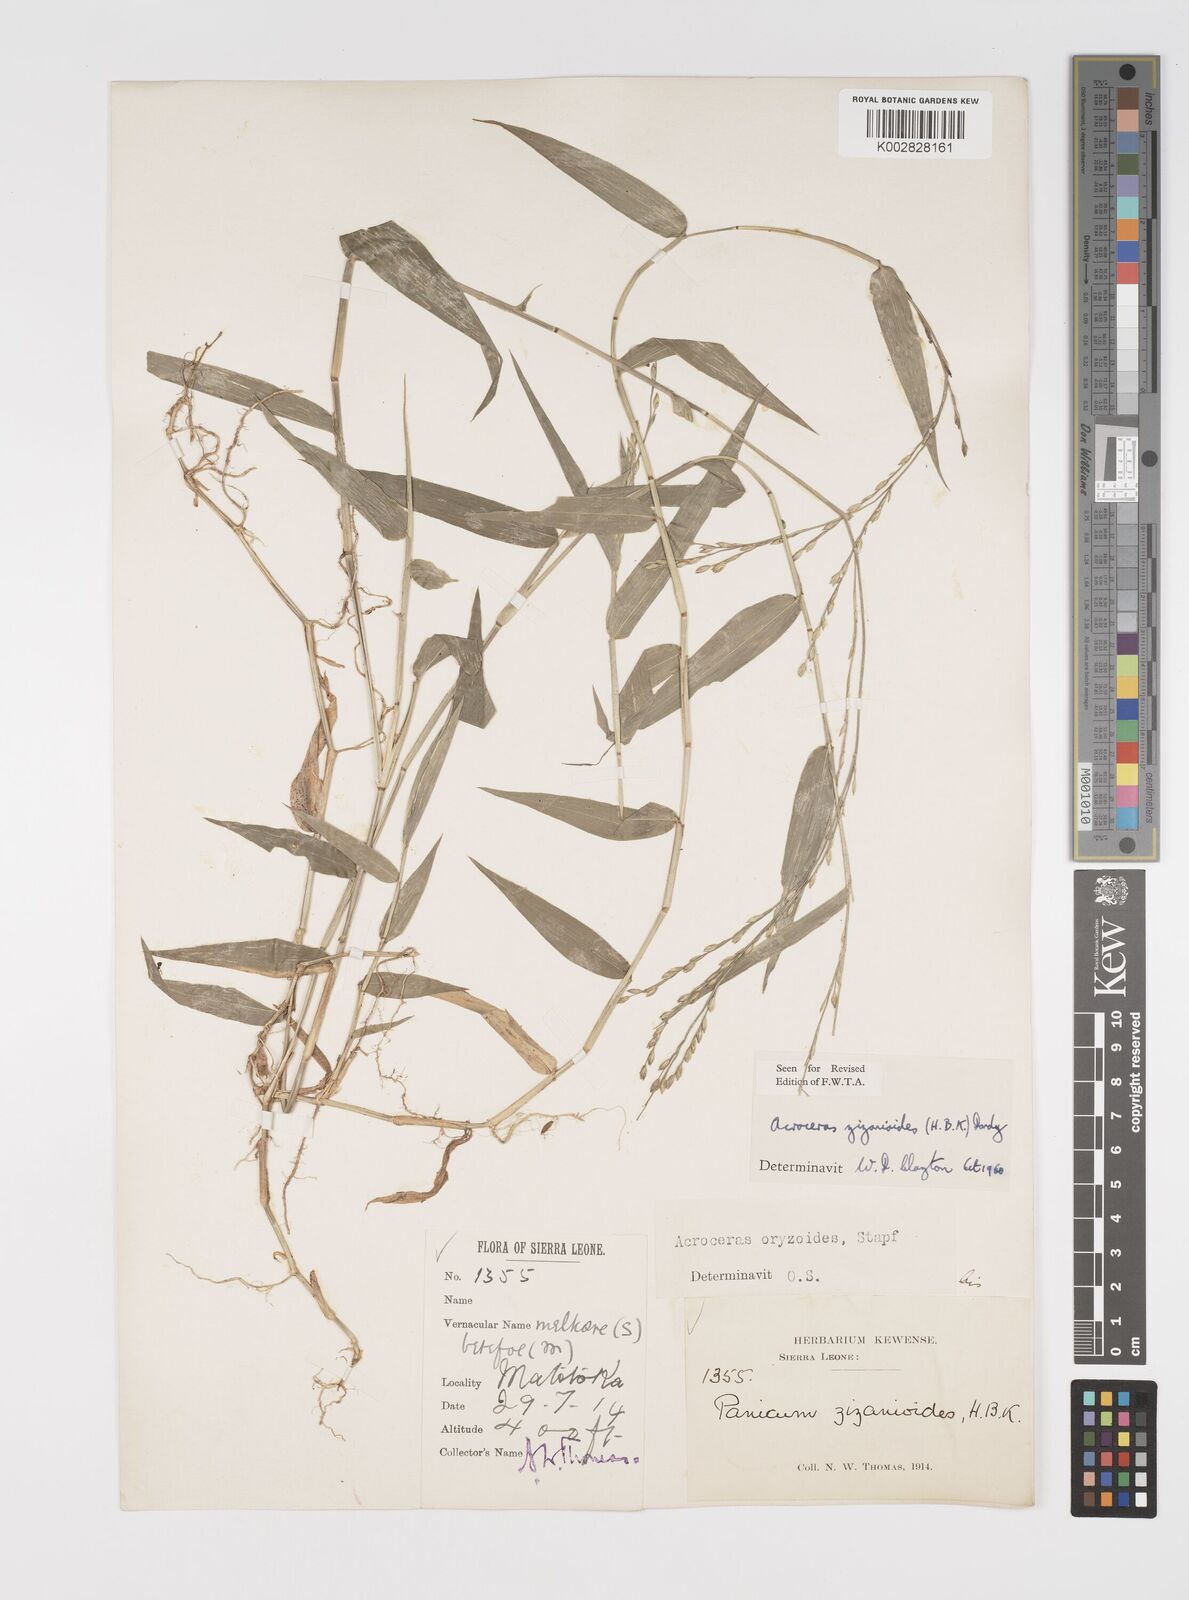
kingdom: Plantae
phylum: Tracheophyta
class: Liliopsida
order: Poales
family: Poaceae
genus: Acroceras
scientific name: Acroceras zizanioides
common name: Oat grass
